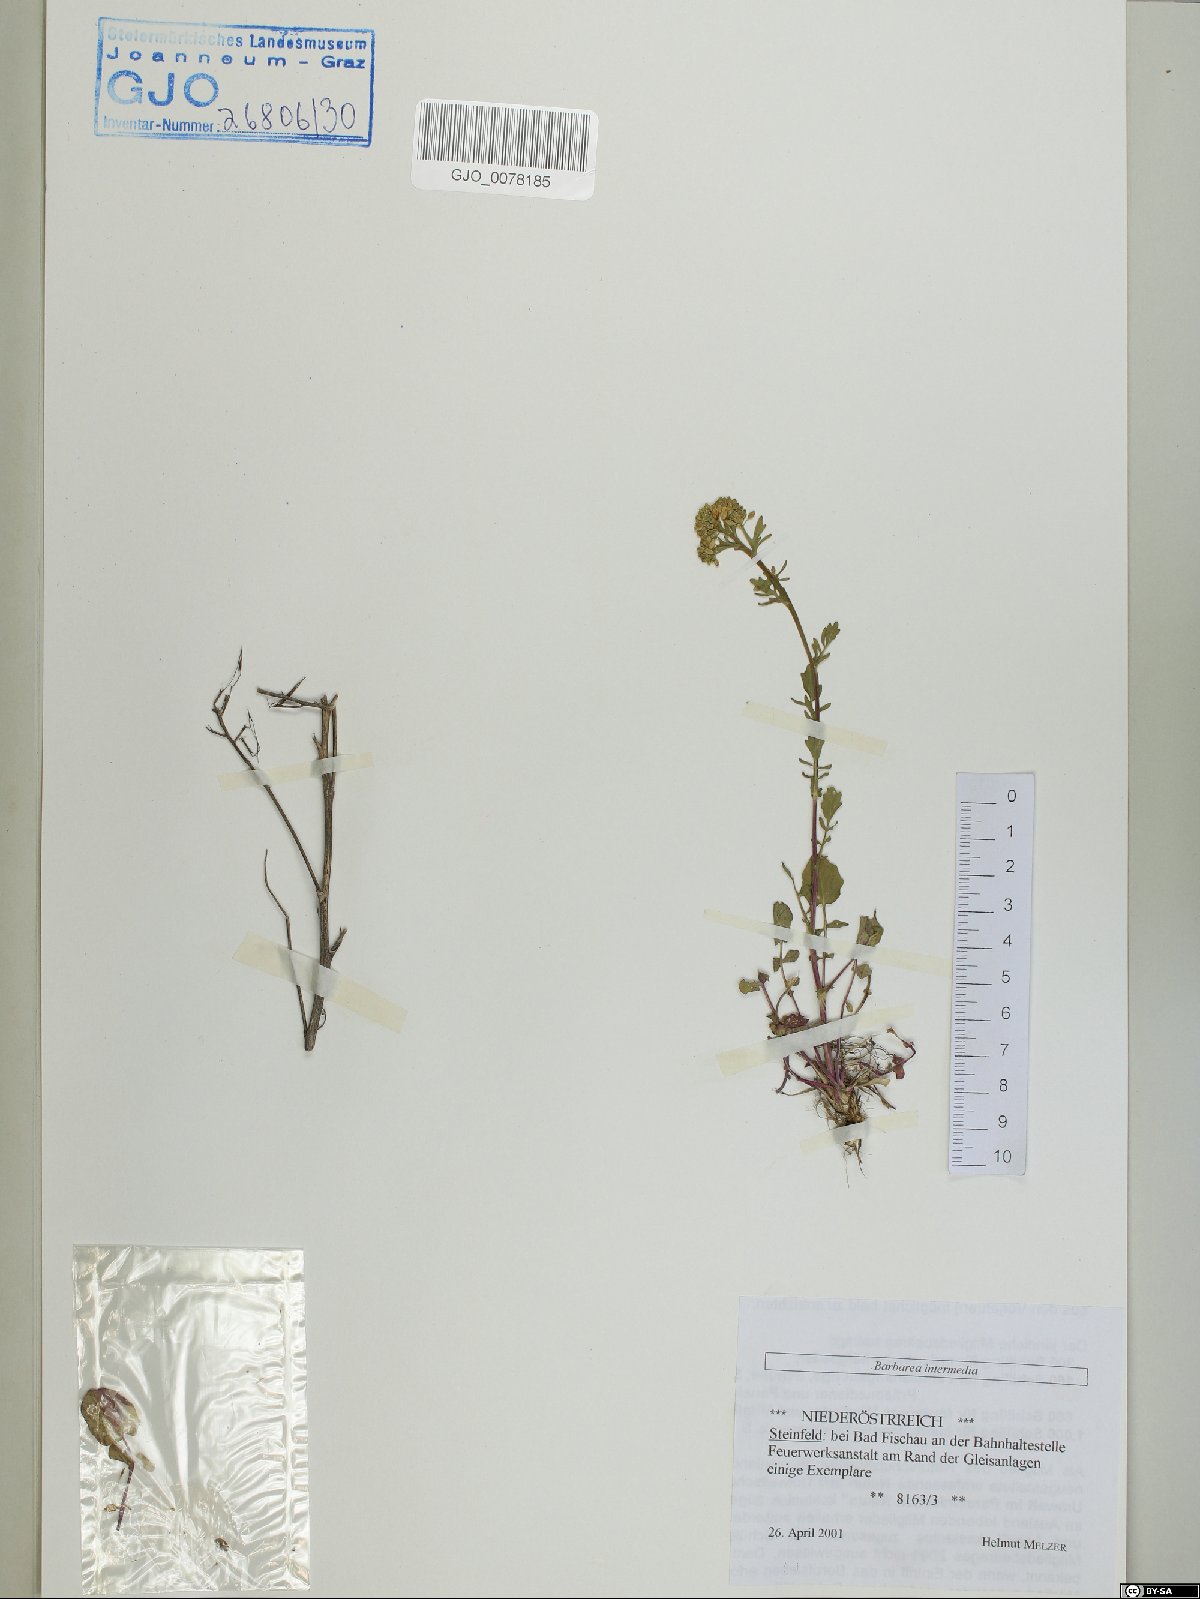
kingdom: Plantae
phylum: Tracheophyta
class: Magnoliopsida
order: Brassicales
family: Brassicaceae
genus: Barbarea
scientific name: Barbarea intermedia
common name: Medium-flowered winter-cress
